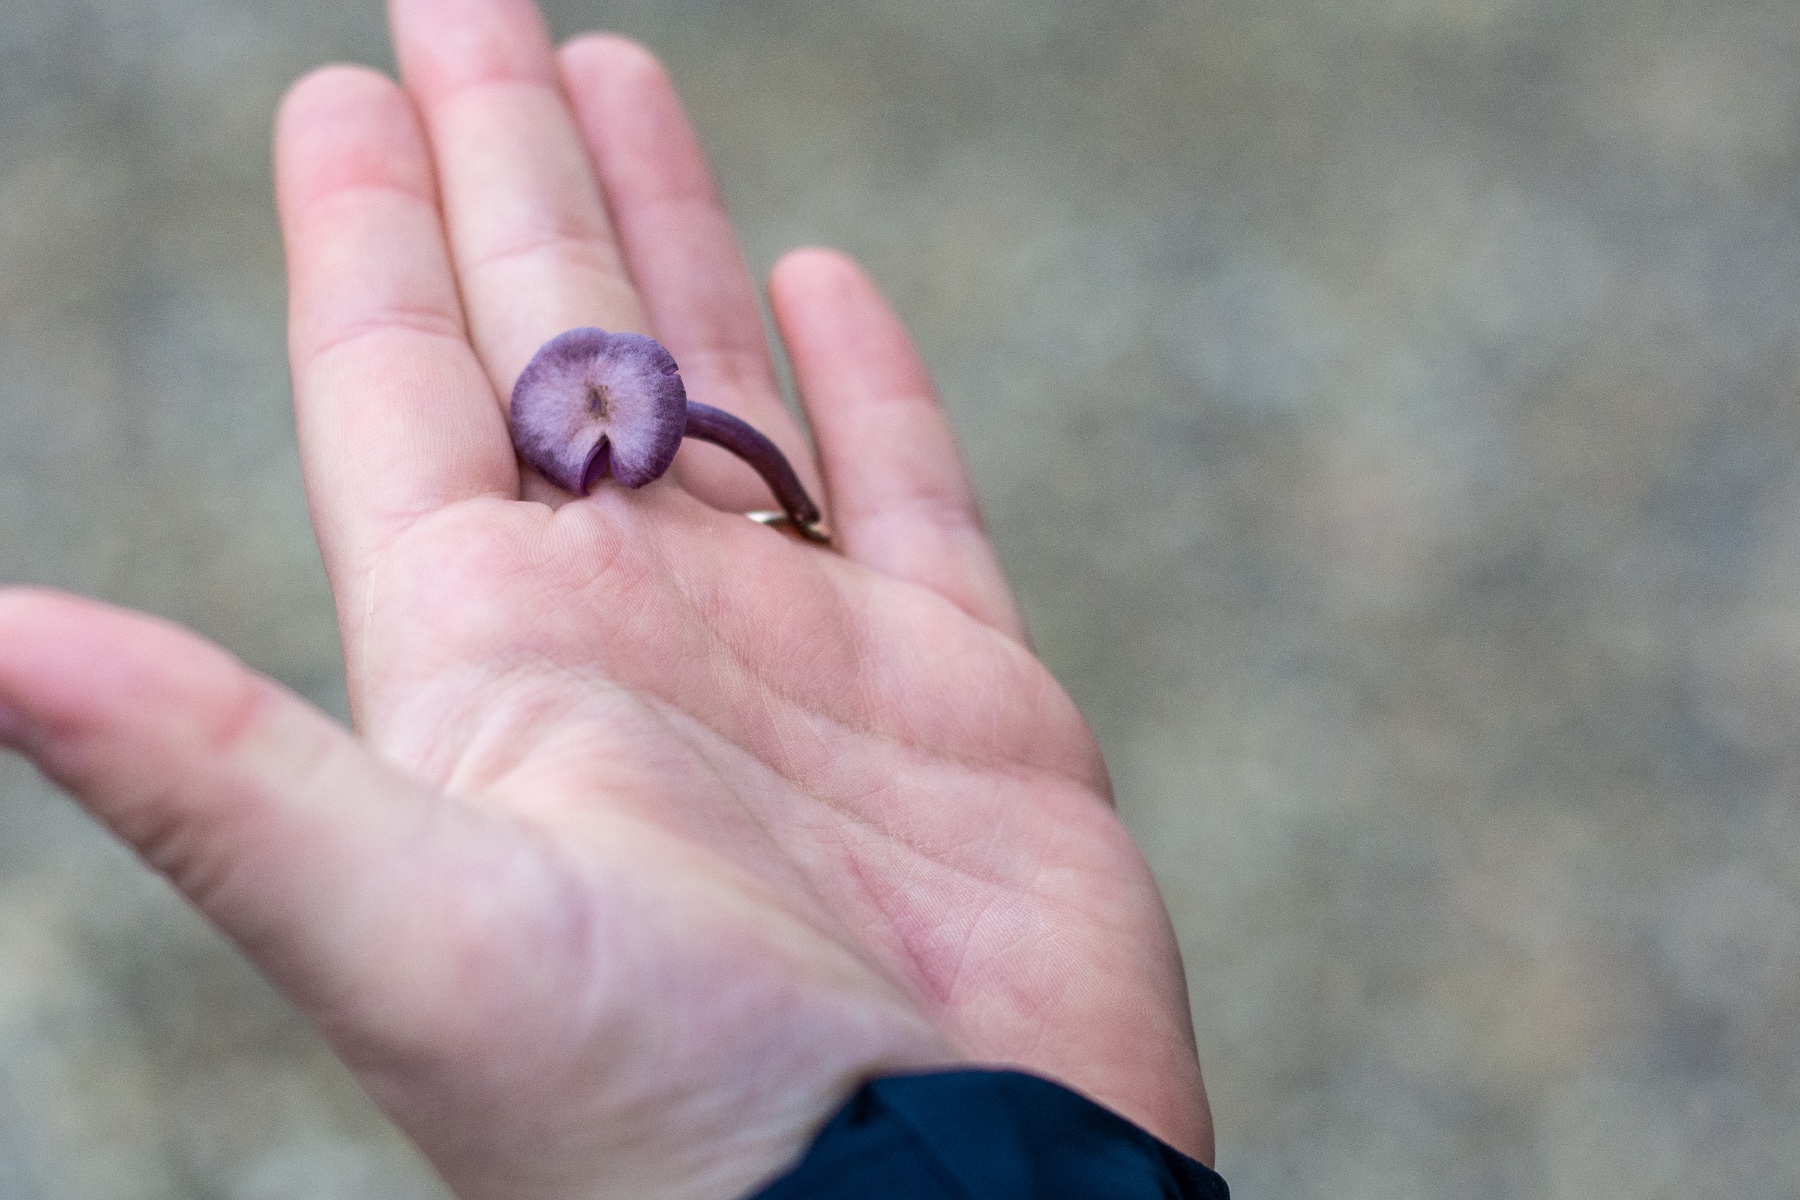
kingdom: Fungi
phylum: Basidiomycota
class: Agaricomycetes
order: Agaricales
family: Hydnangiaceae
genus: Laccaria
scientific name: Laccaria amethystina
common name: violet ametysthat
